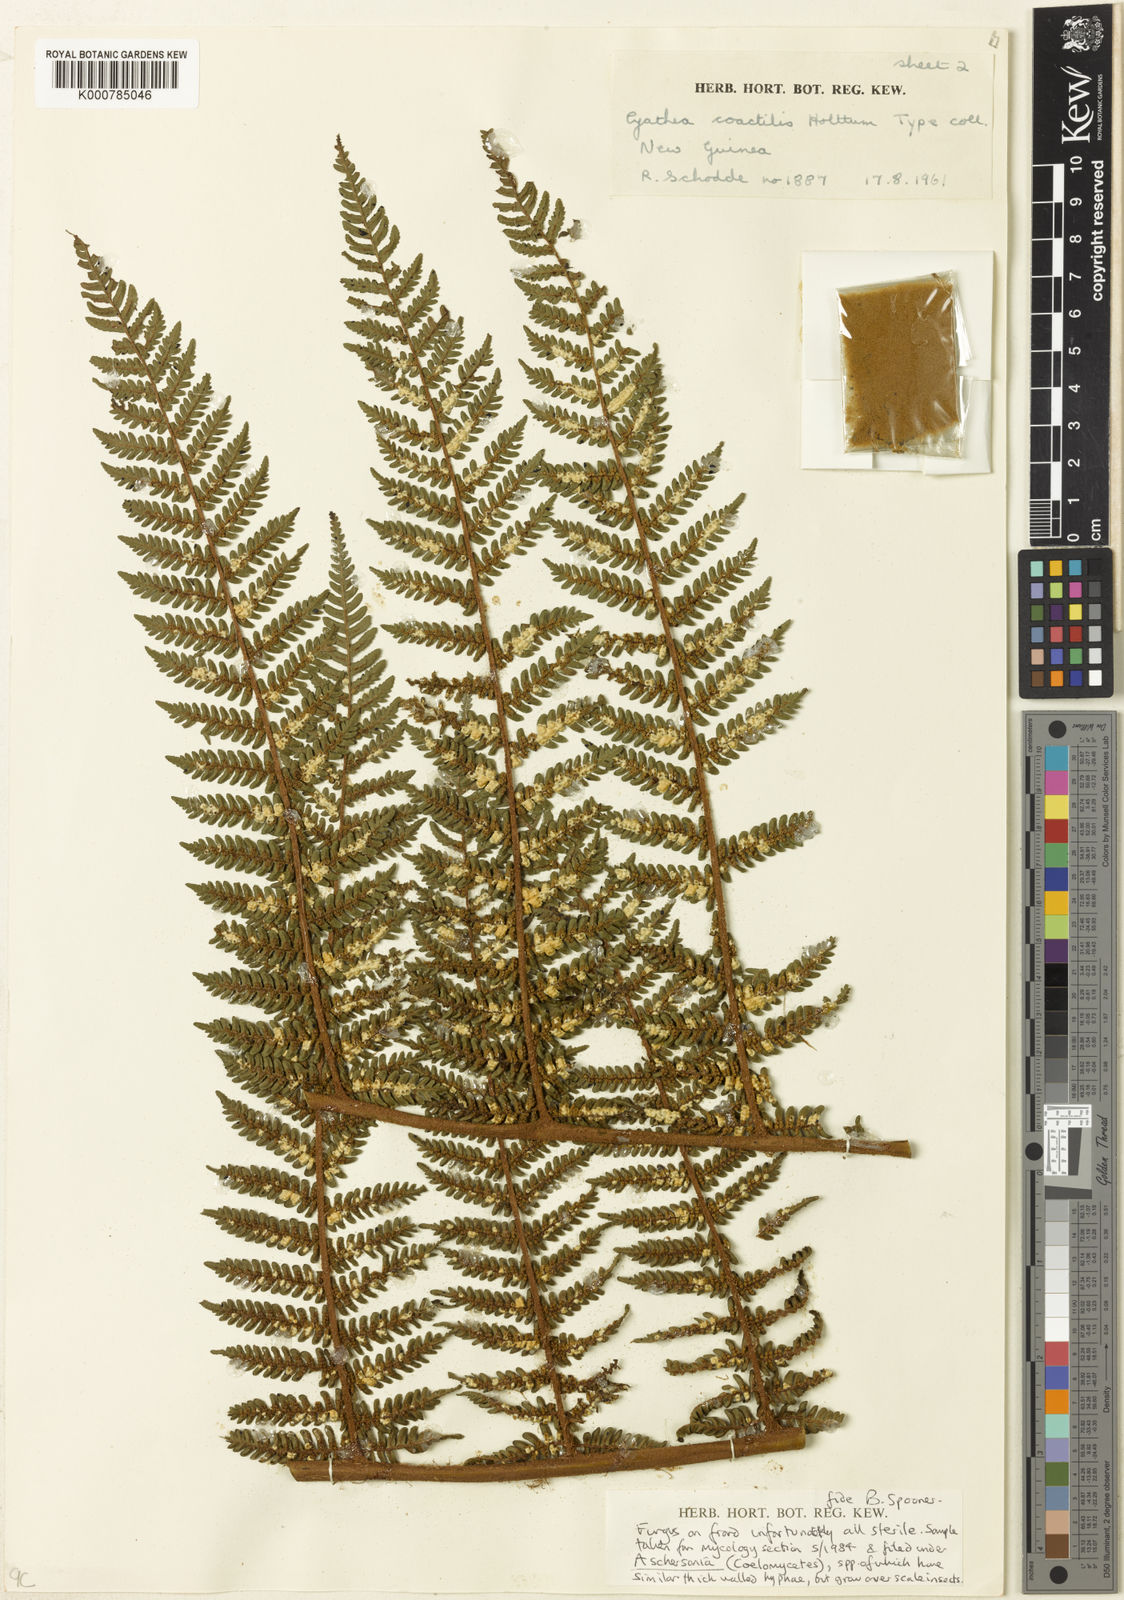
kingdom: Plantae
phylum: Tracheophyta
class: Polypodiopsida
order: Cyatheales
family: Cyatheaceae
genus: Alsophila
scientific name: Alsophila coactilis
